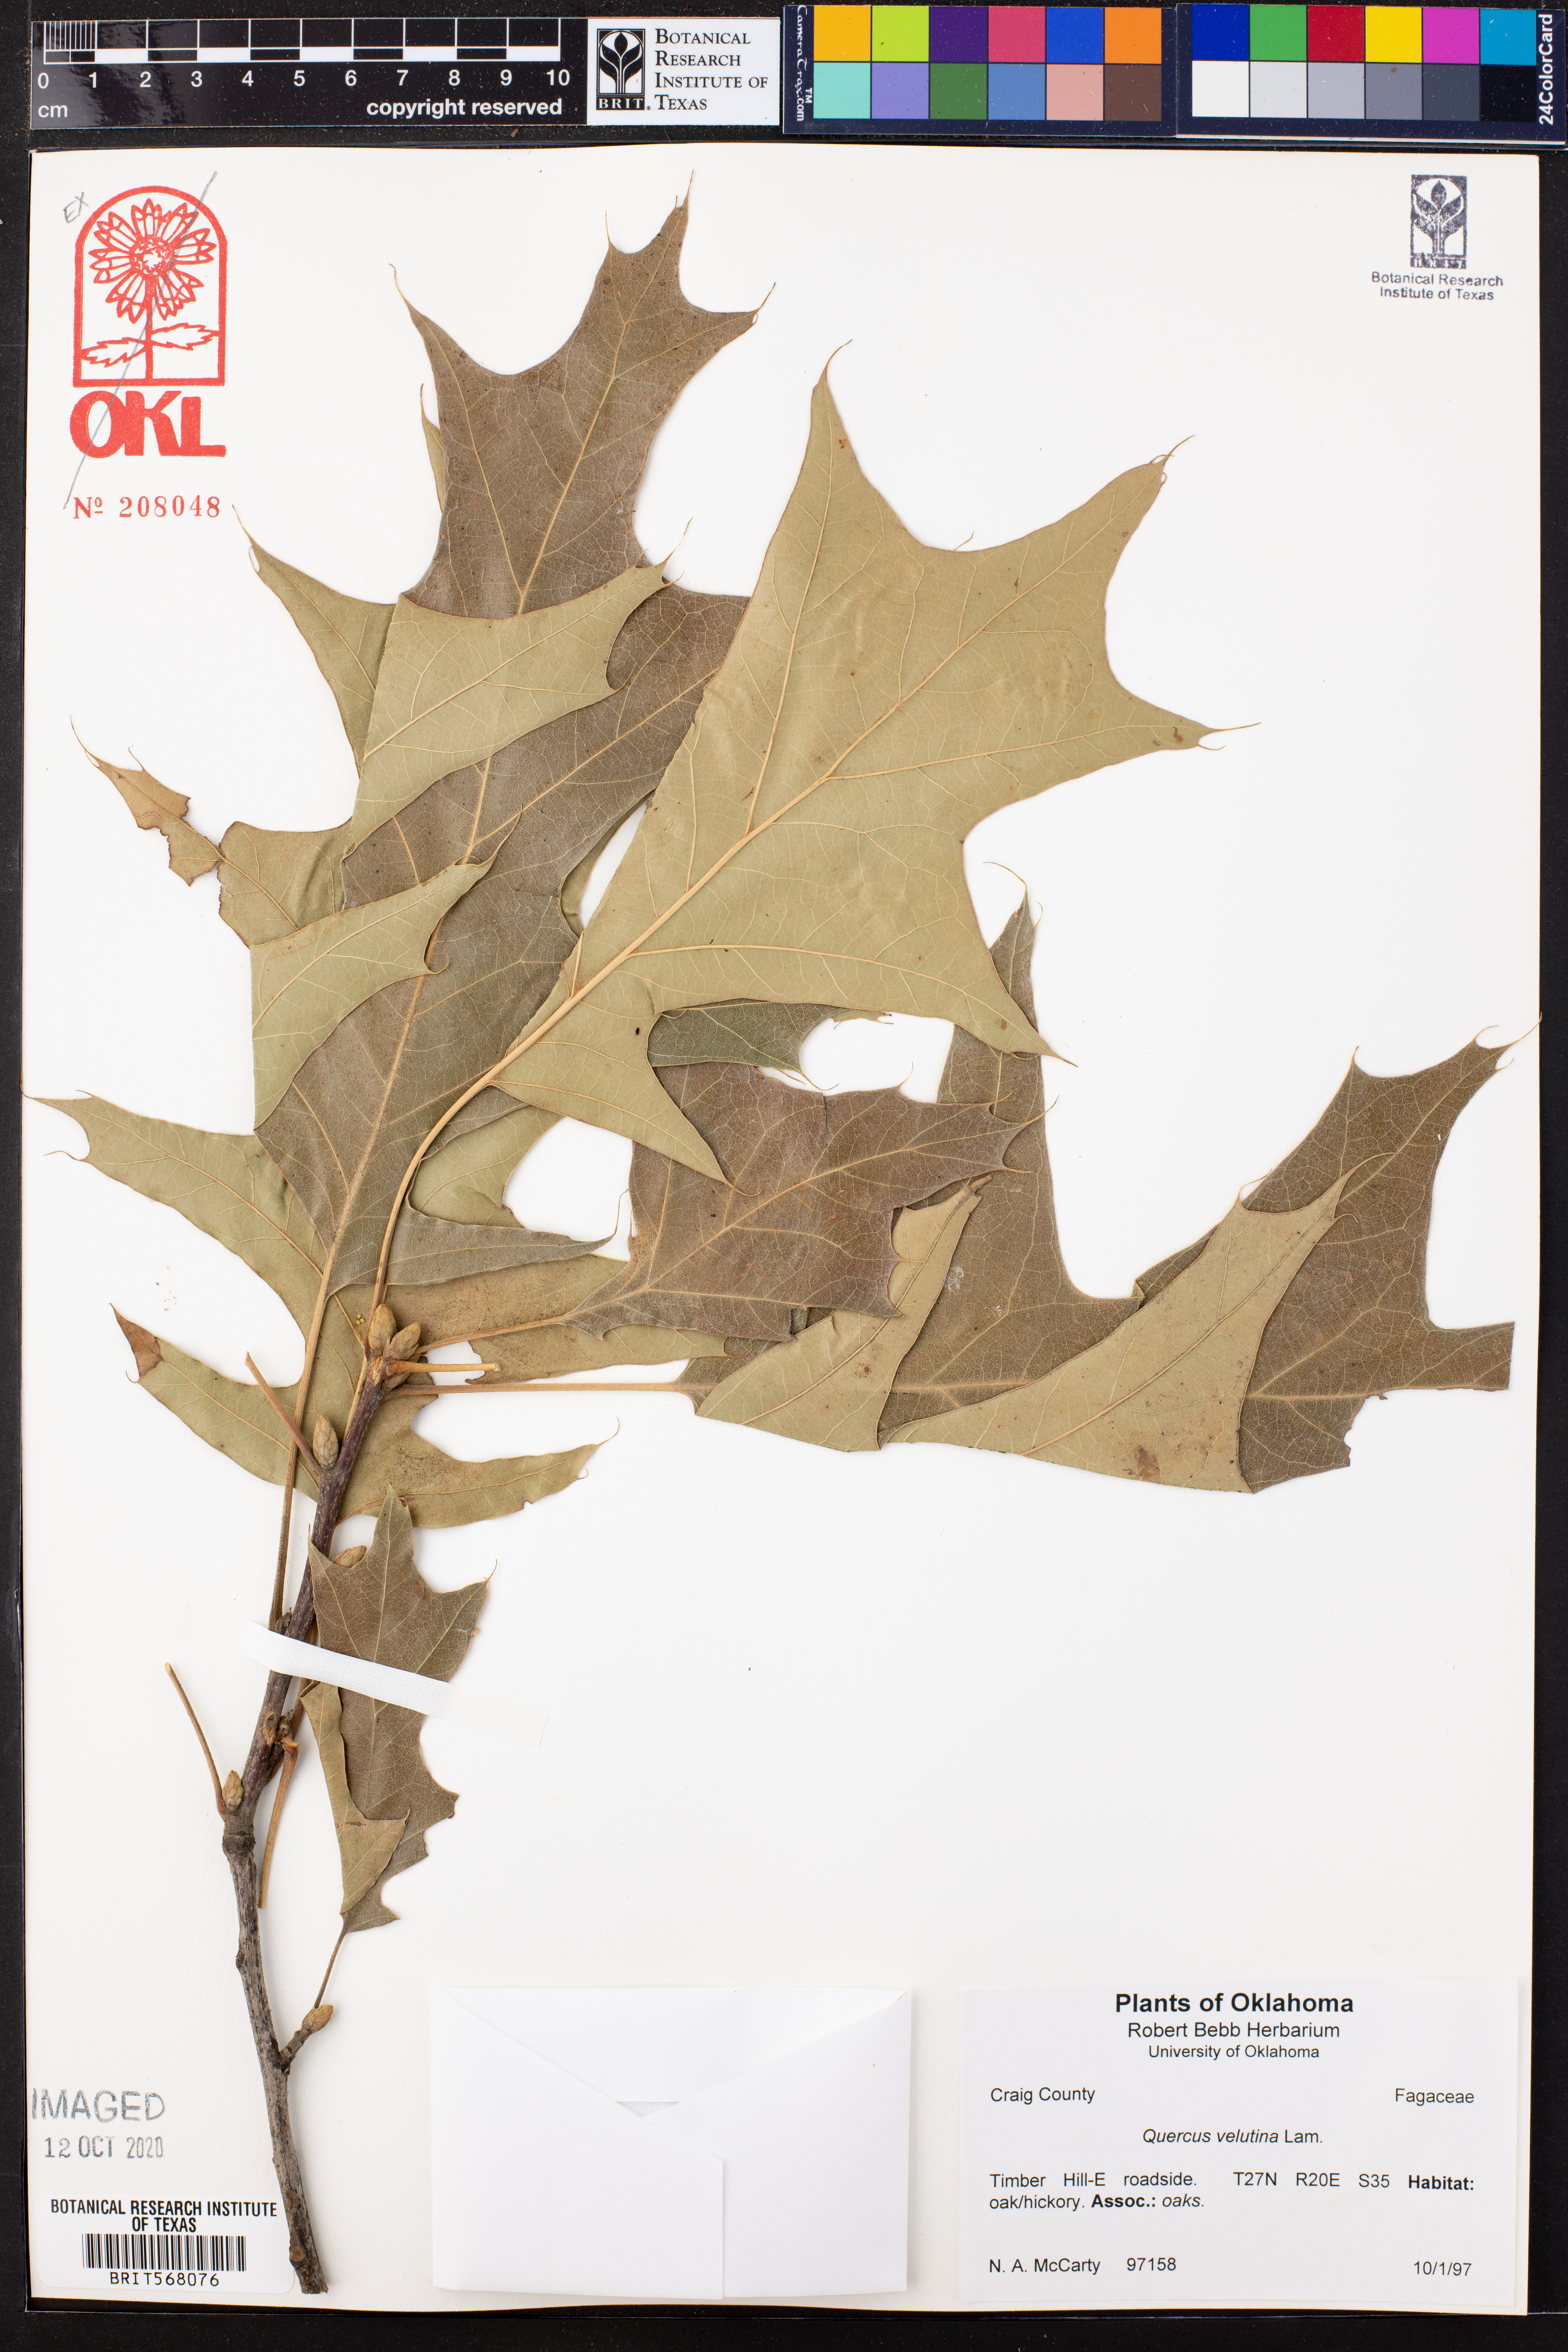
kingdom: Plantae
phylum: Tracheophyta
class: Magnoliopsida
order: Fagales
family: Fagaceae
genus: Quercus
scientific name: Quercus velutina
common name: Black oak
